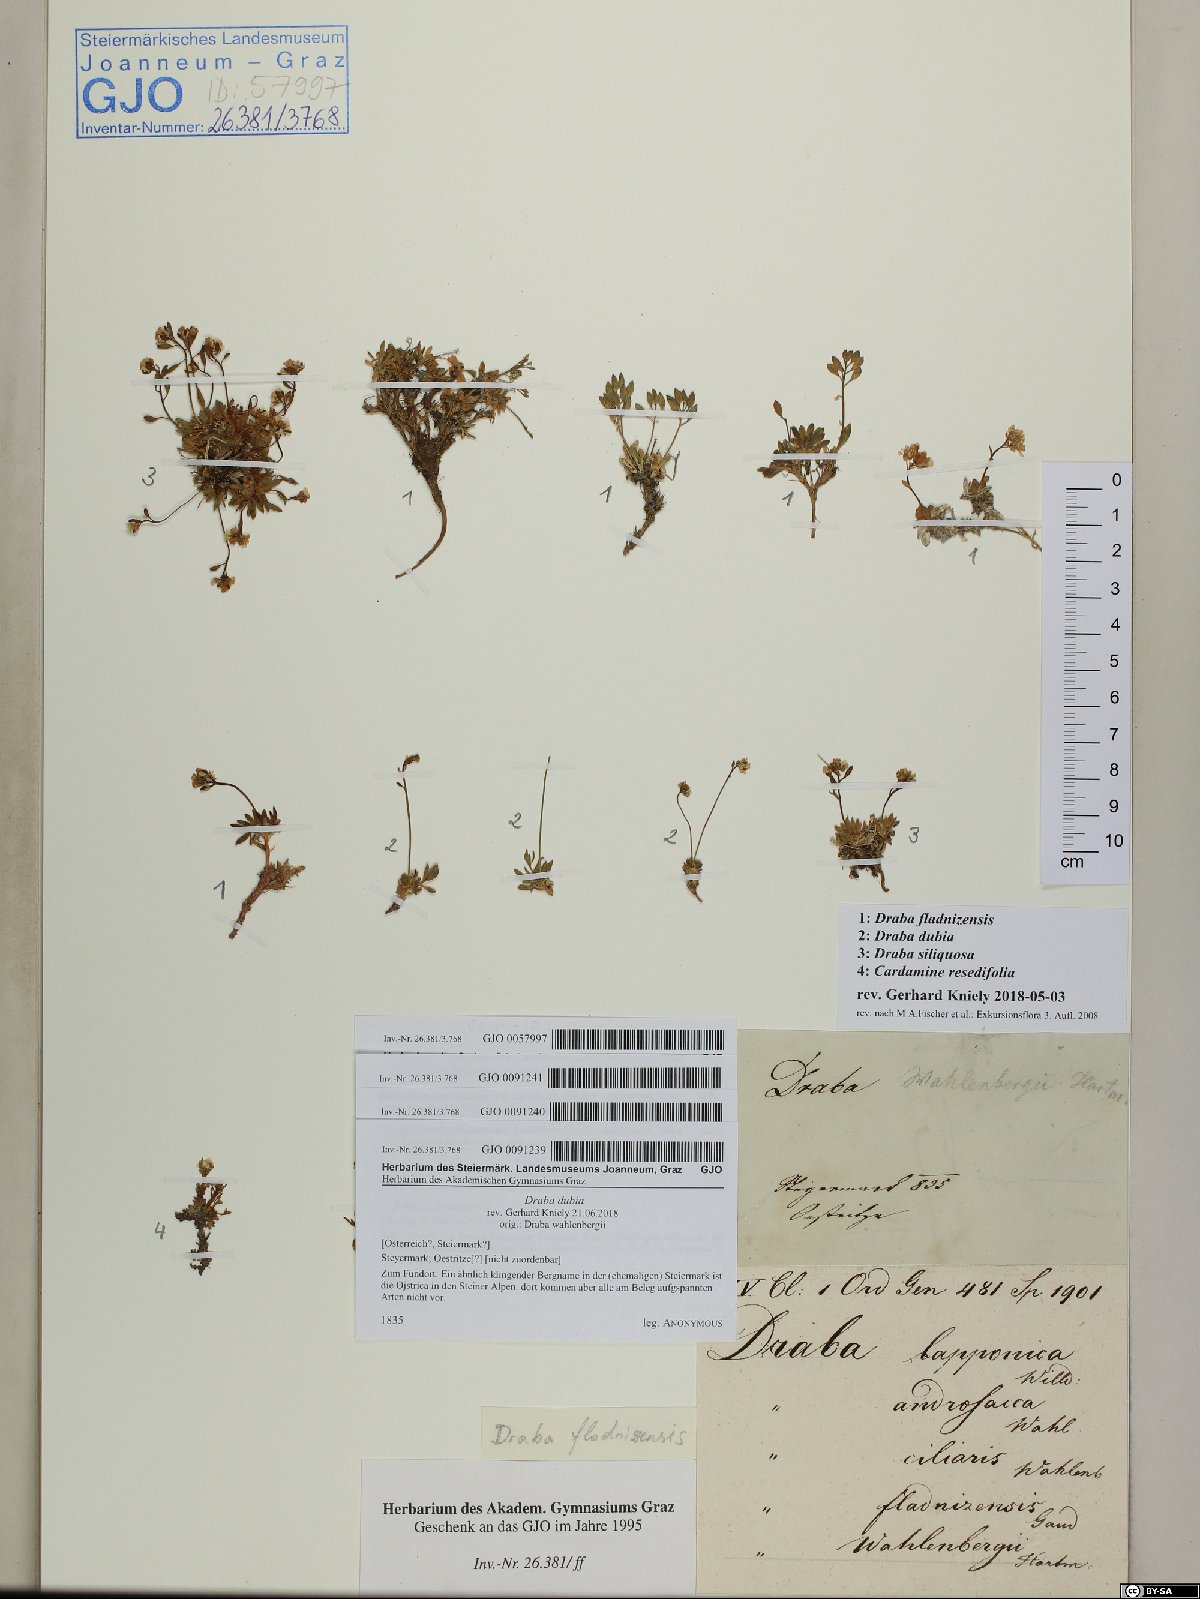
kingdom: Plantae
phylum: Tracheophyta
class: Magnoliopsida
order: Brassicales
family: Brassicaceae
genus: Draba
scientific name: Draba siliquosa
